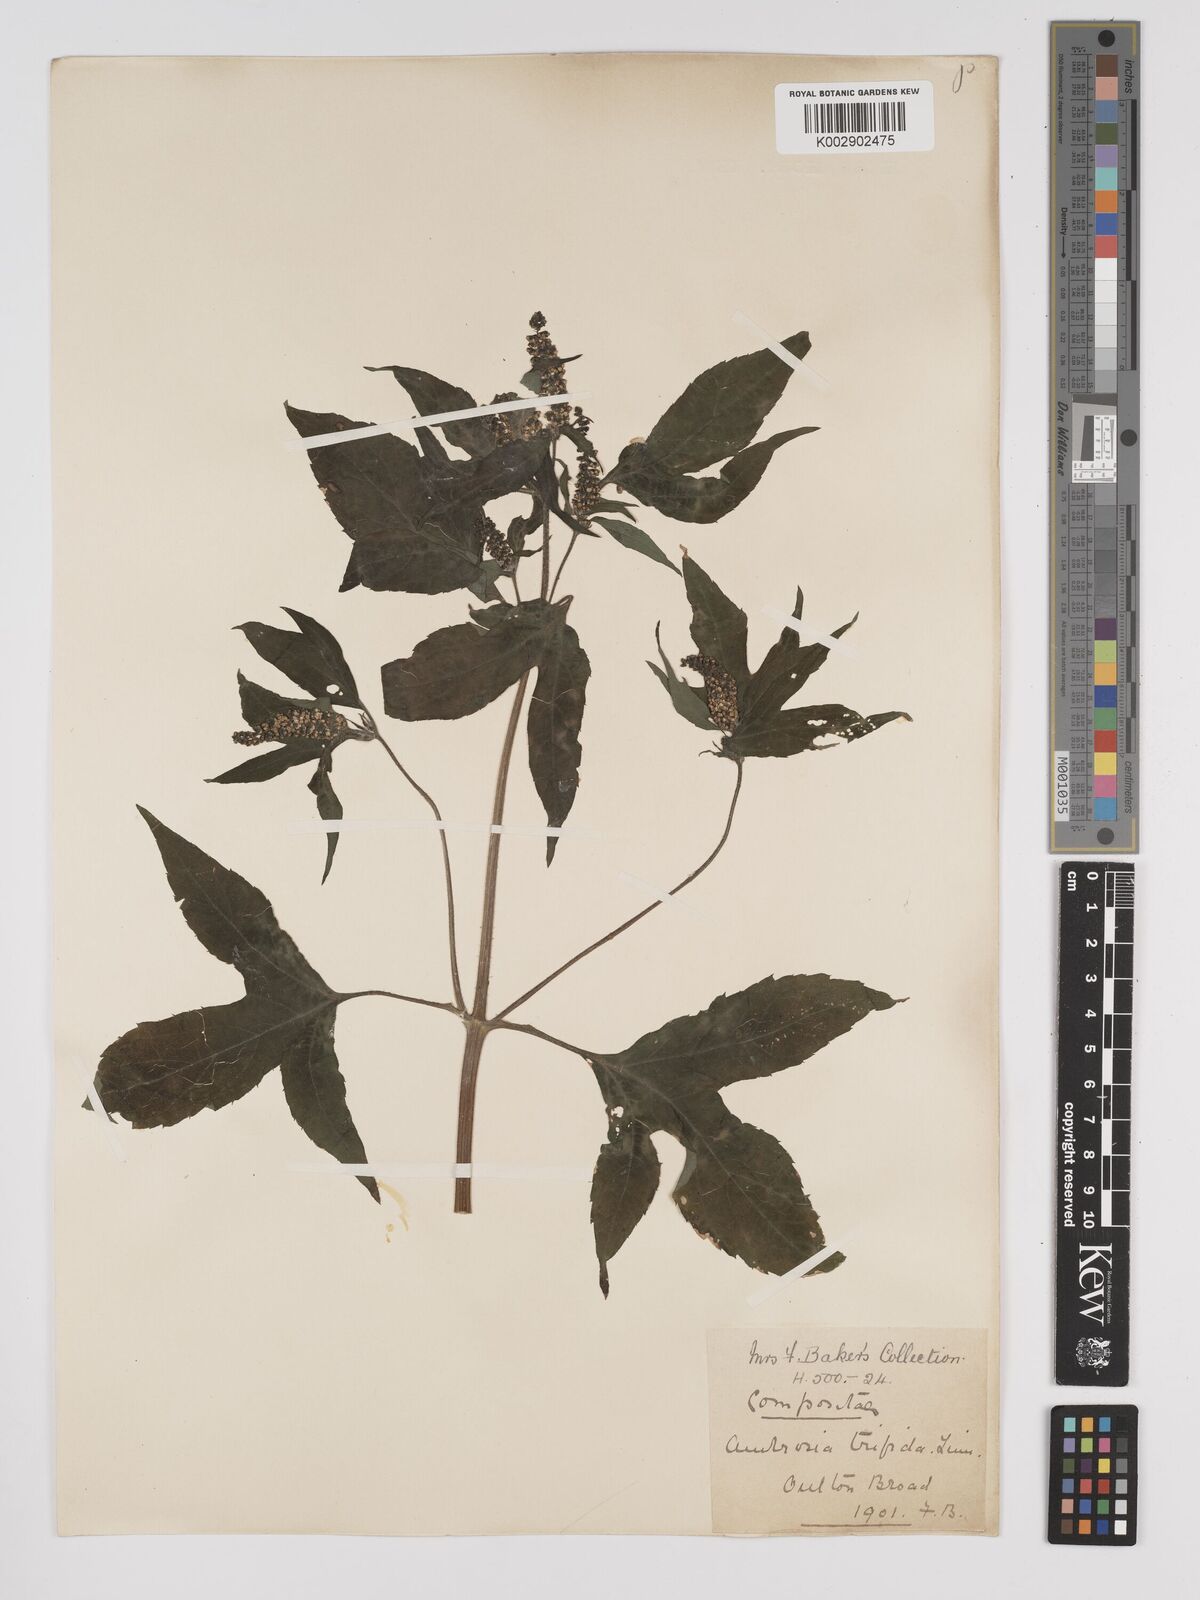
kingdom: Plantae
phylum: Tracheophyta
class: Magnoliopsida
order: Asterales
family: Asteraceae
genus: Ambrosia
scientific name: Ambrosia trifida
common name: Giant ragweed
